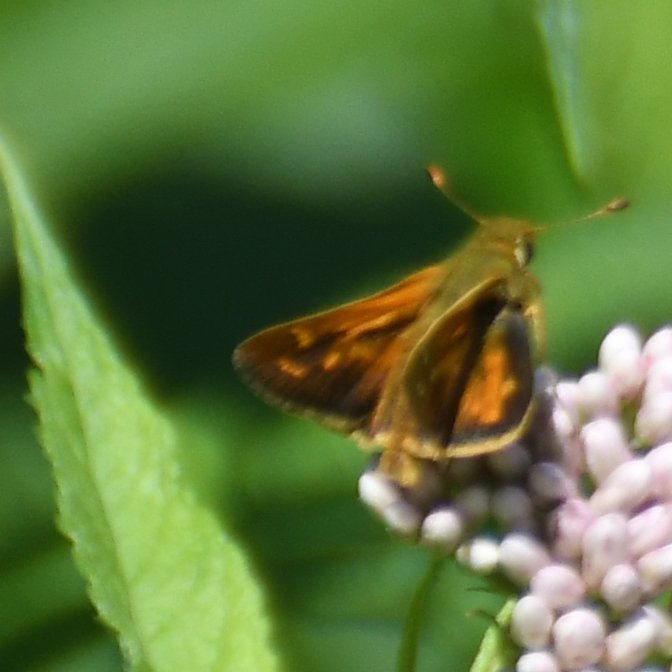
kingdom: Animalia
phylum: Arthropoda
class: Insecta
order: Lepidoptera
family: Hesperiidae
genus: Polites
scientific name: Polites coras
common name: Peck's Skipper
